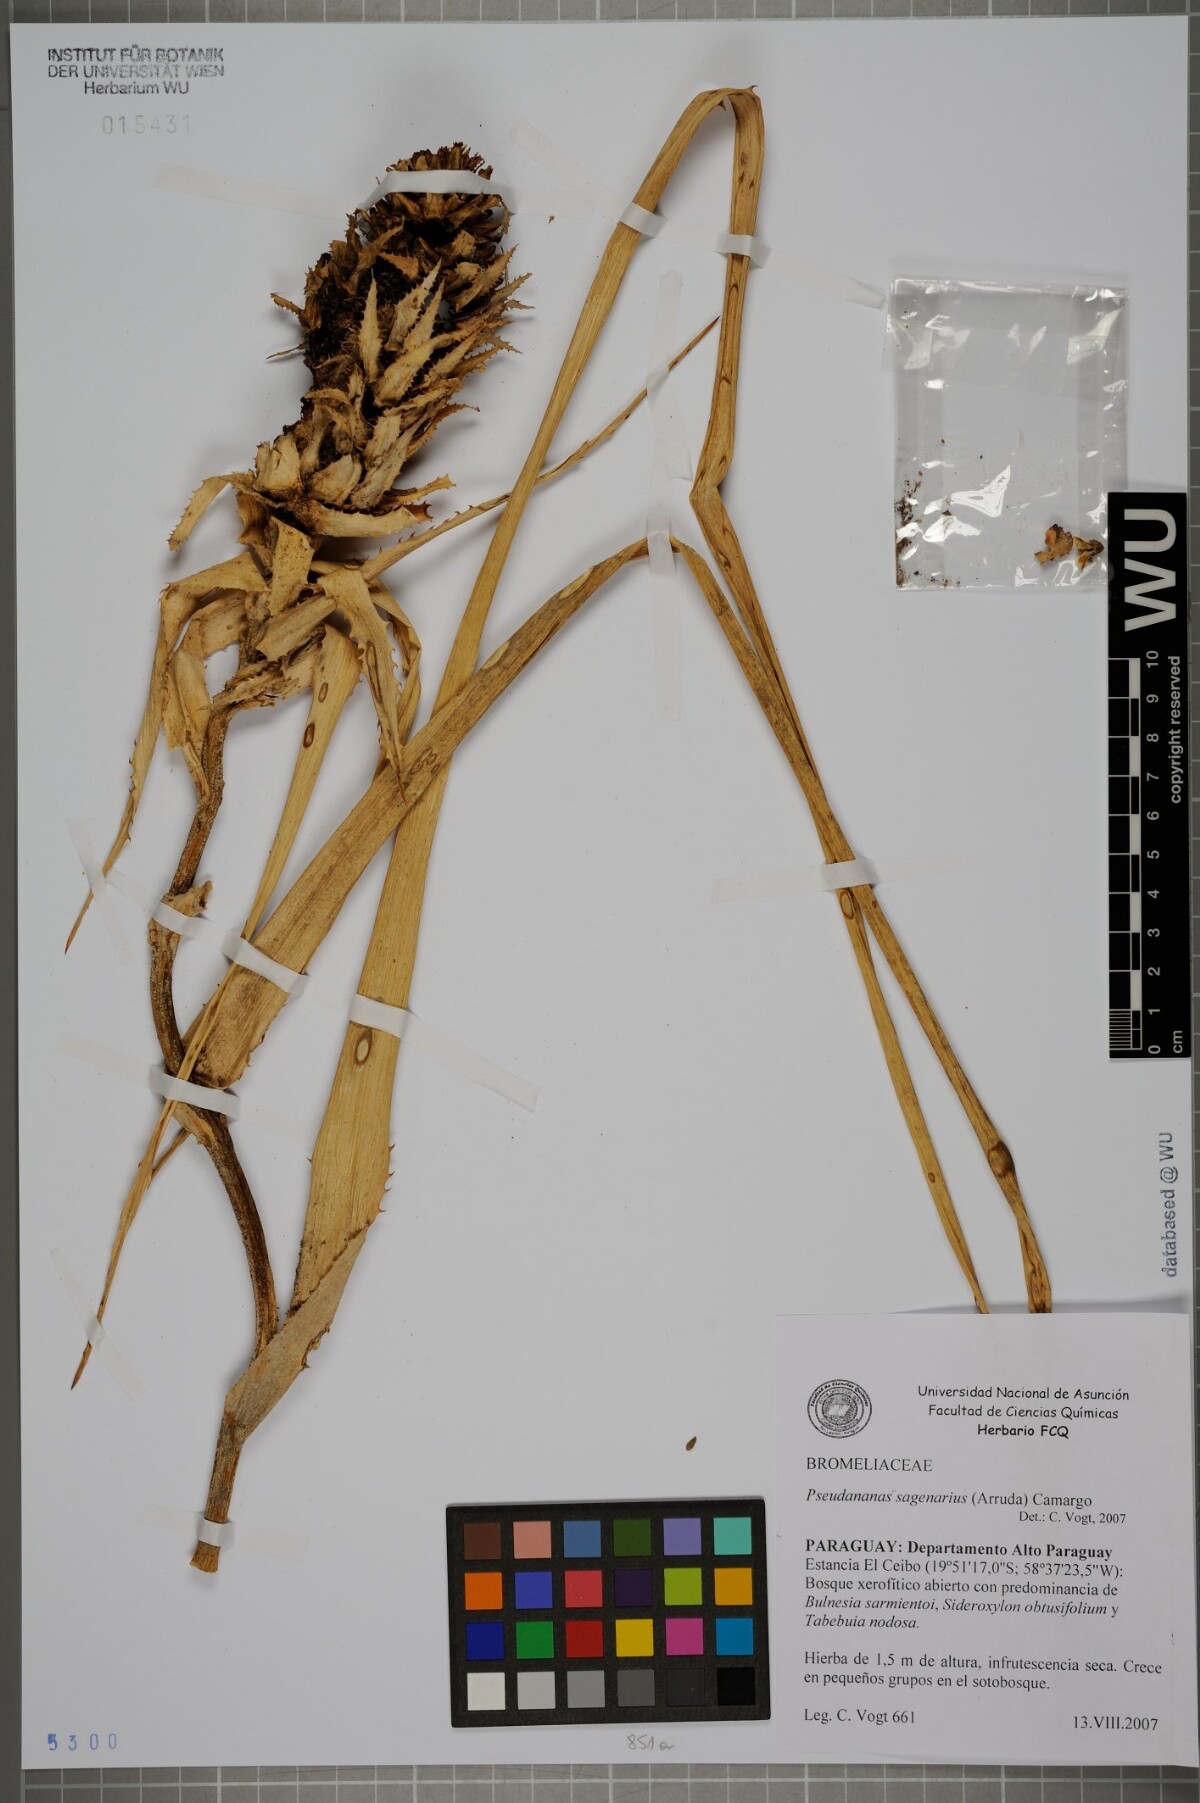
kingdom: Plantae
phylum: Tracheophyta
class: Liliopsida
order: Poales
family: Bromeliaceae
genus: Ananas
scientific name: Ananas comosus
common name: Pineapple
